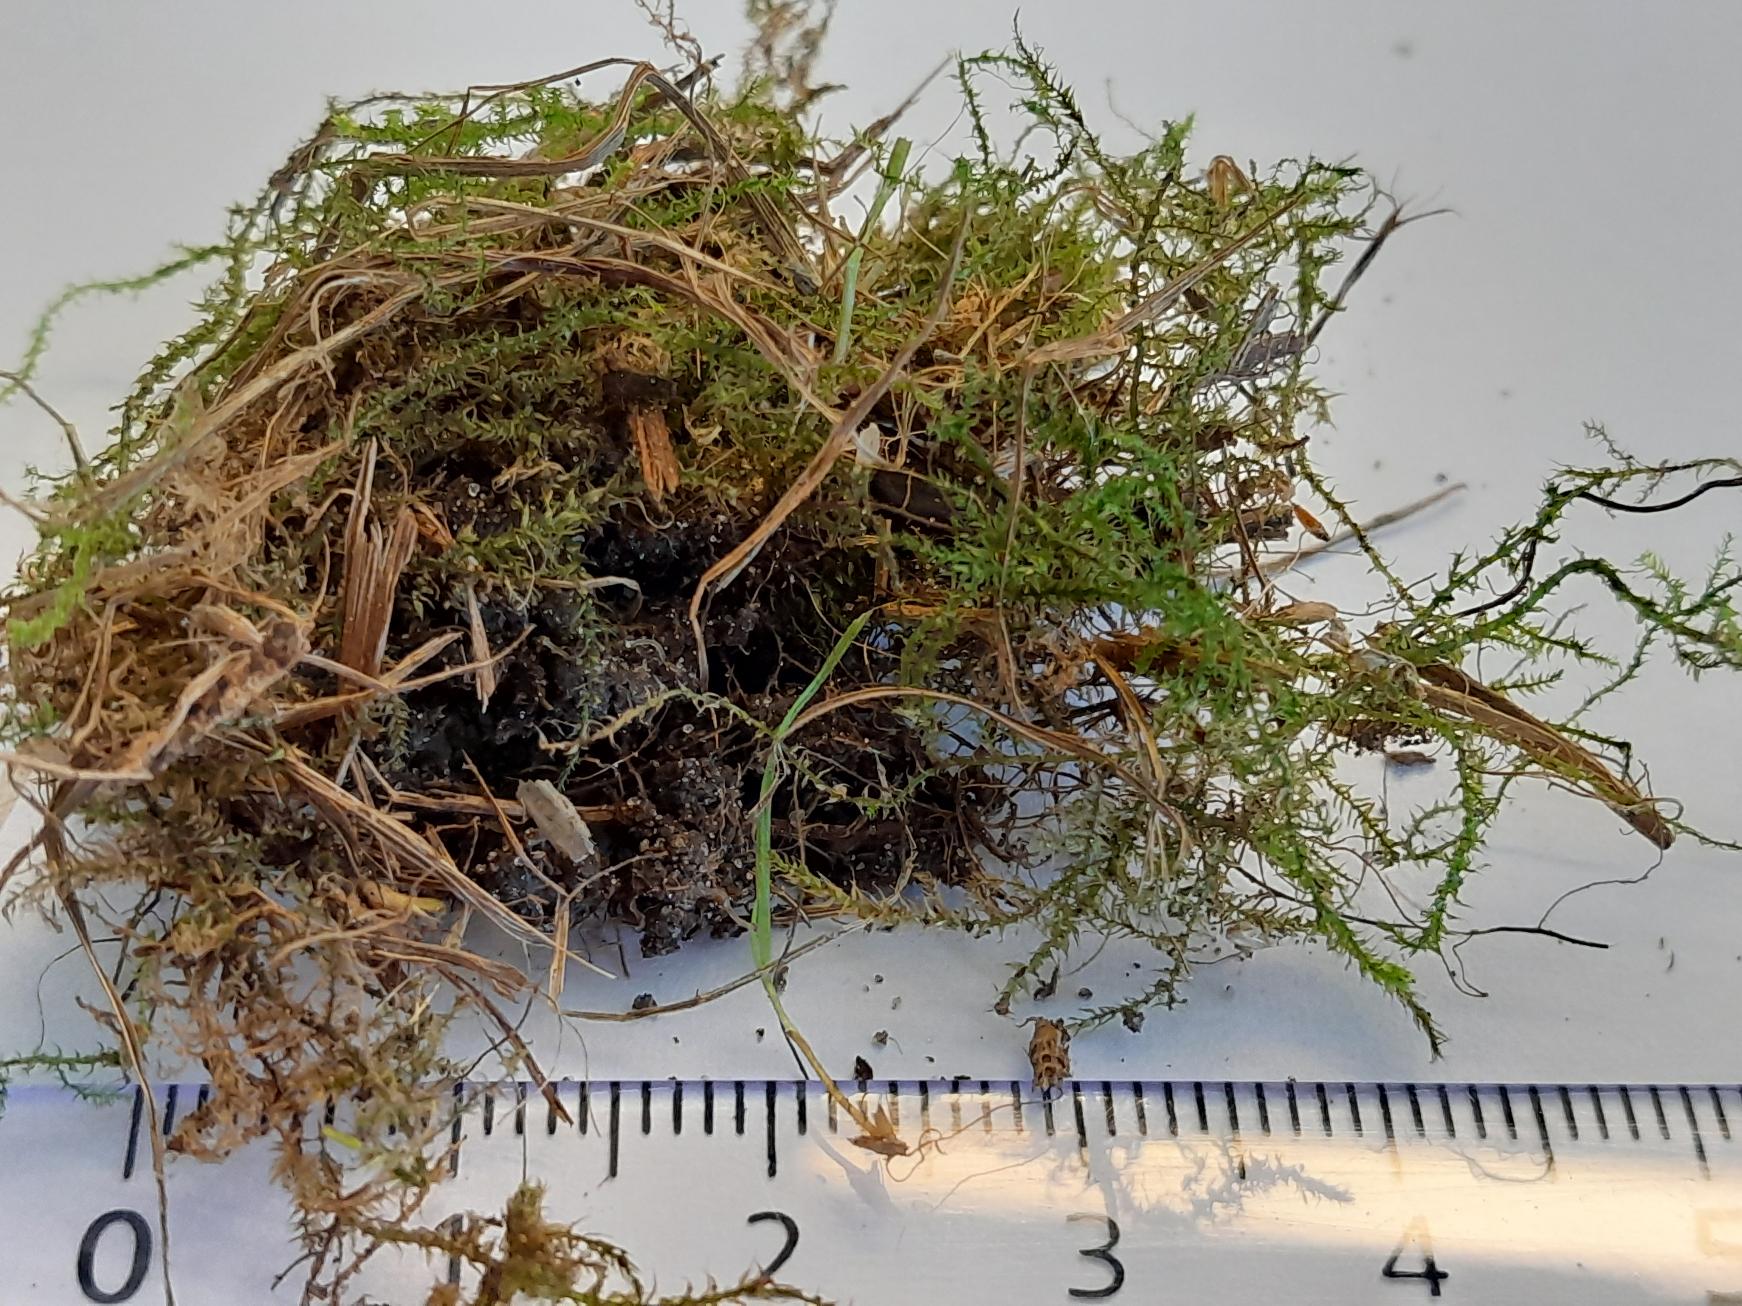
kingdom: Plantae
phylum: Bryophyta
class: Bryopsida
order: Hypnales
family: Brachytheciaceae
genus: Kindbergia
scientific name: Kindbergia praelonga
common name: Forskelligbladet vortetand
